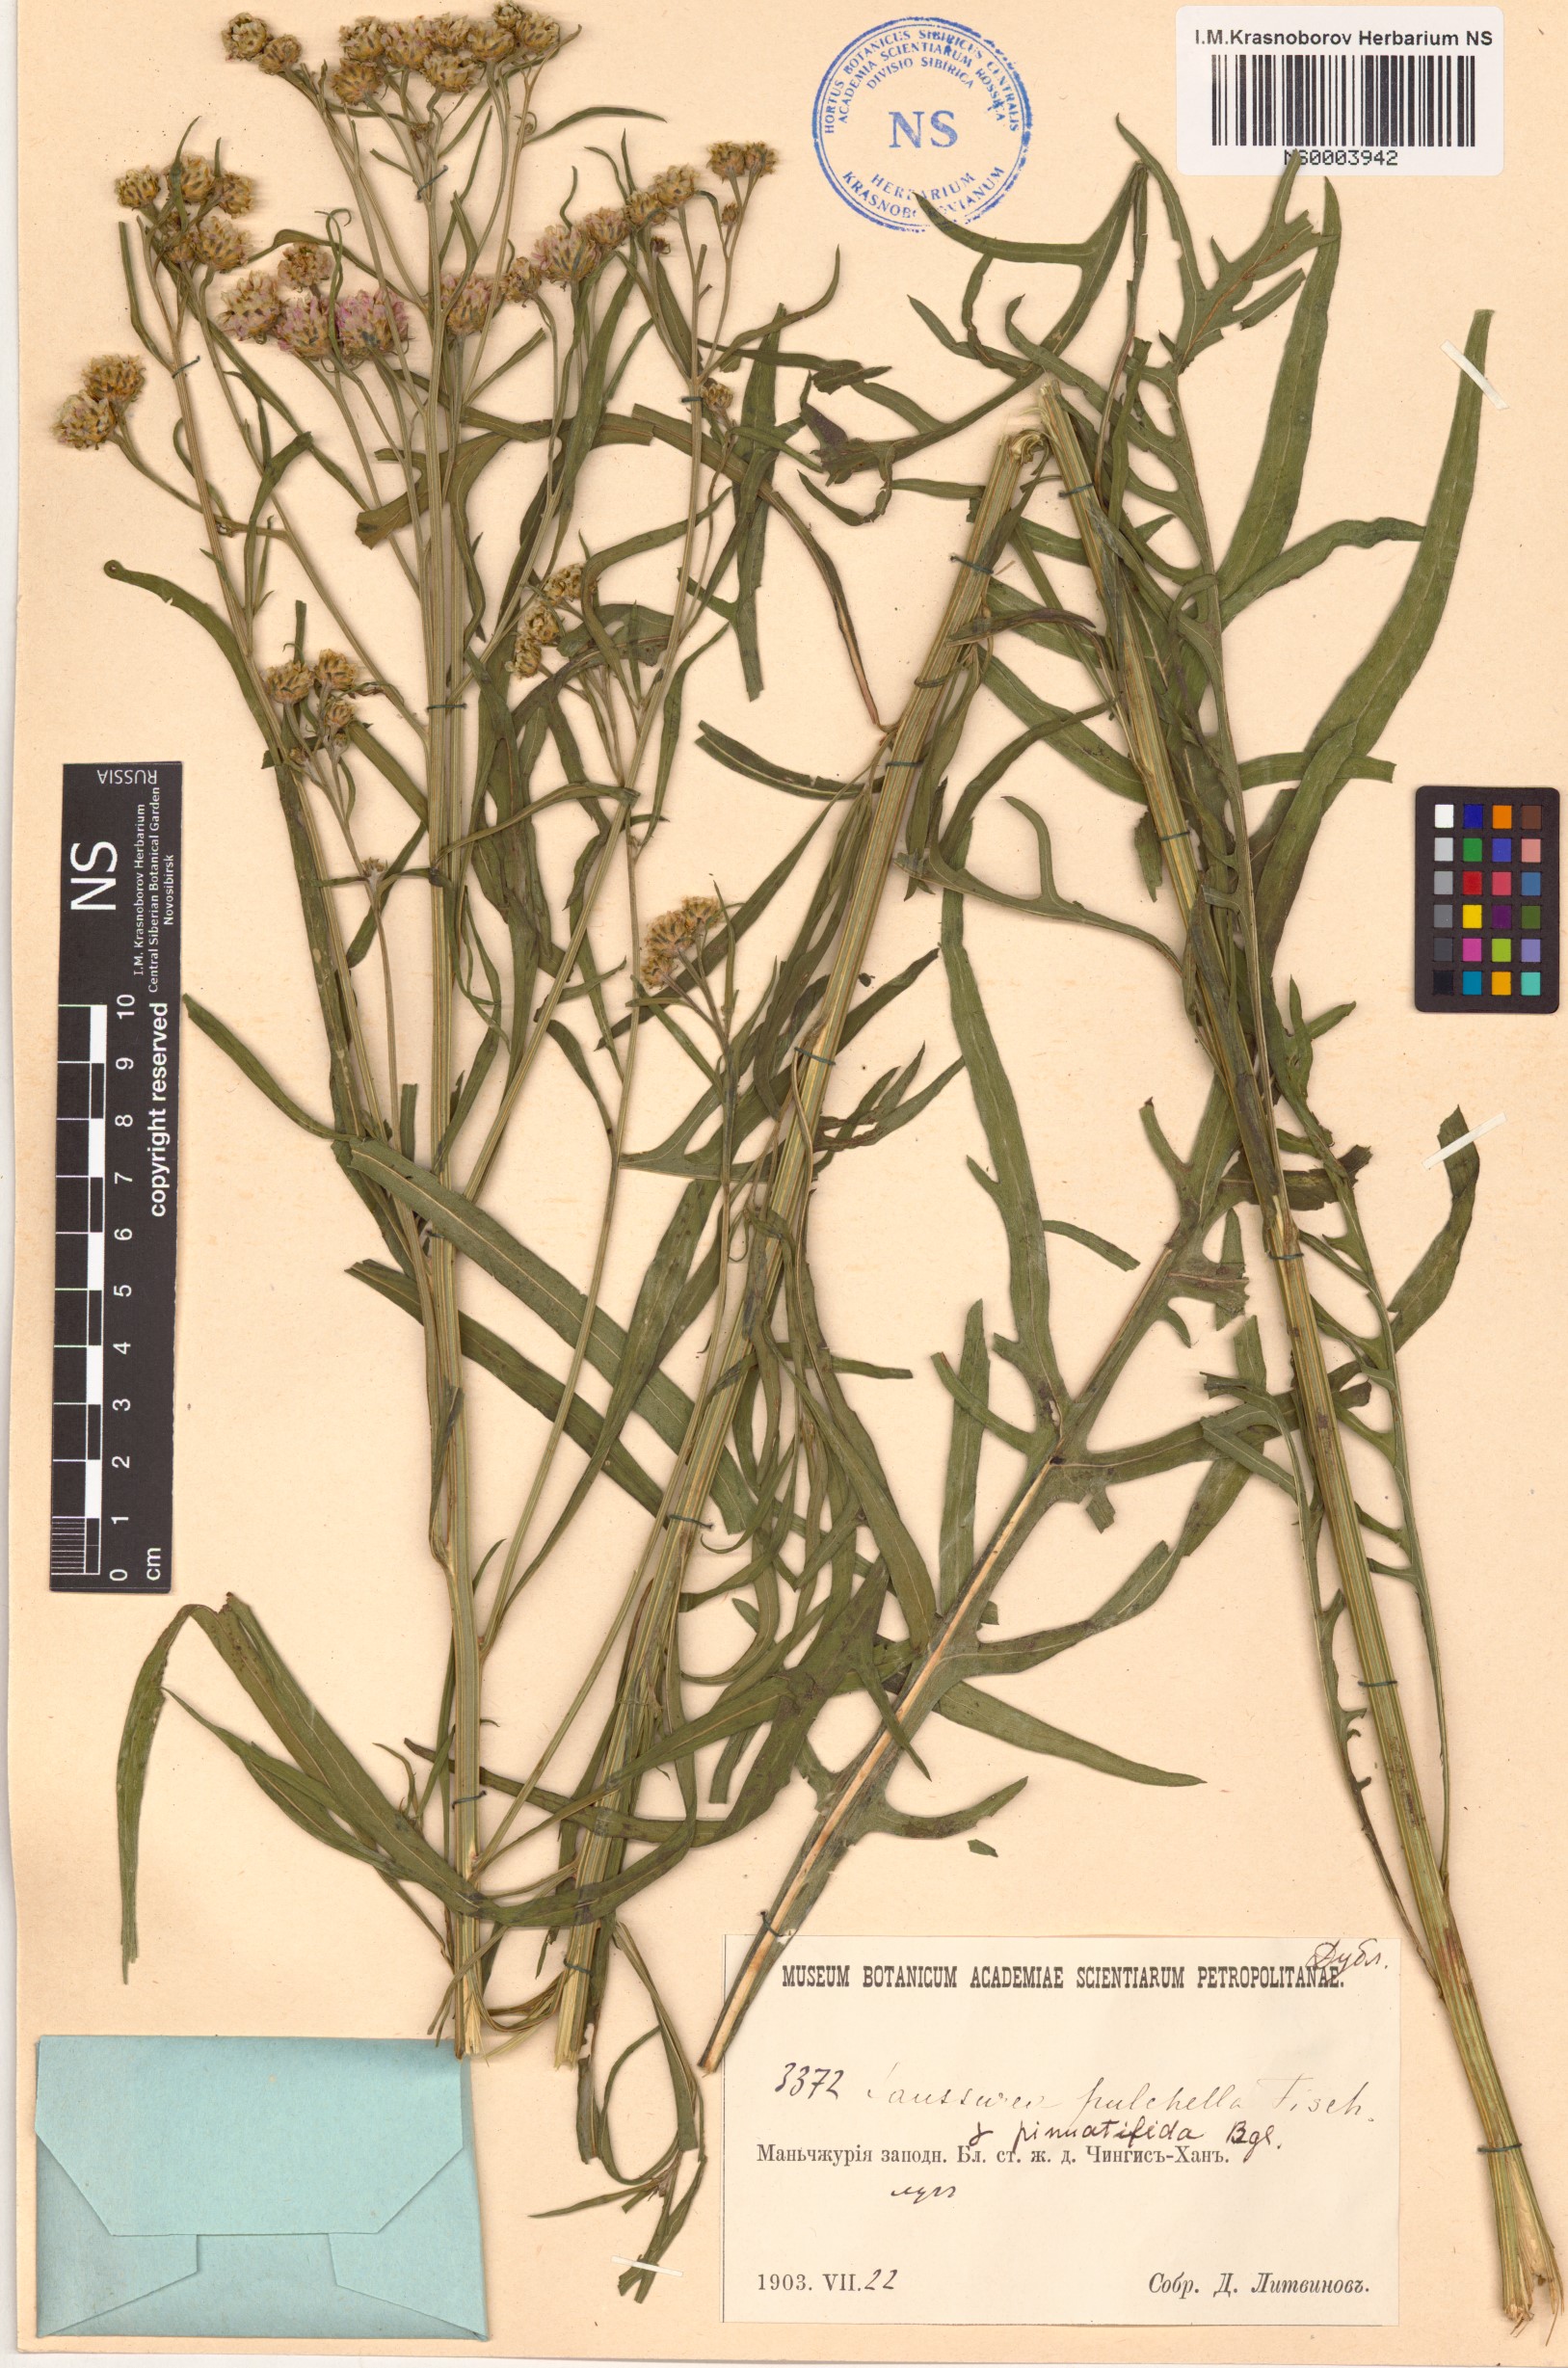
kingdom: Plantae
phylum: Tracheophyta
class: Magnoliopsida
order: Asterales
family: Asteraceae
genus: Saussurea
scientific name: Saussurea pulchella
